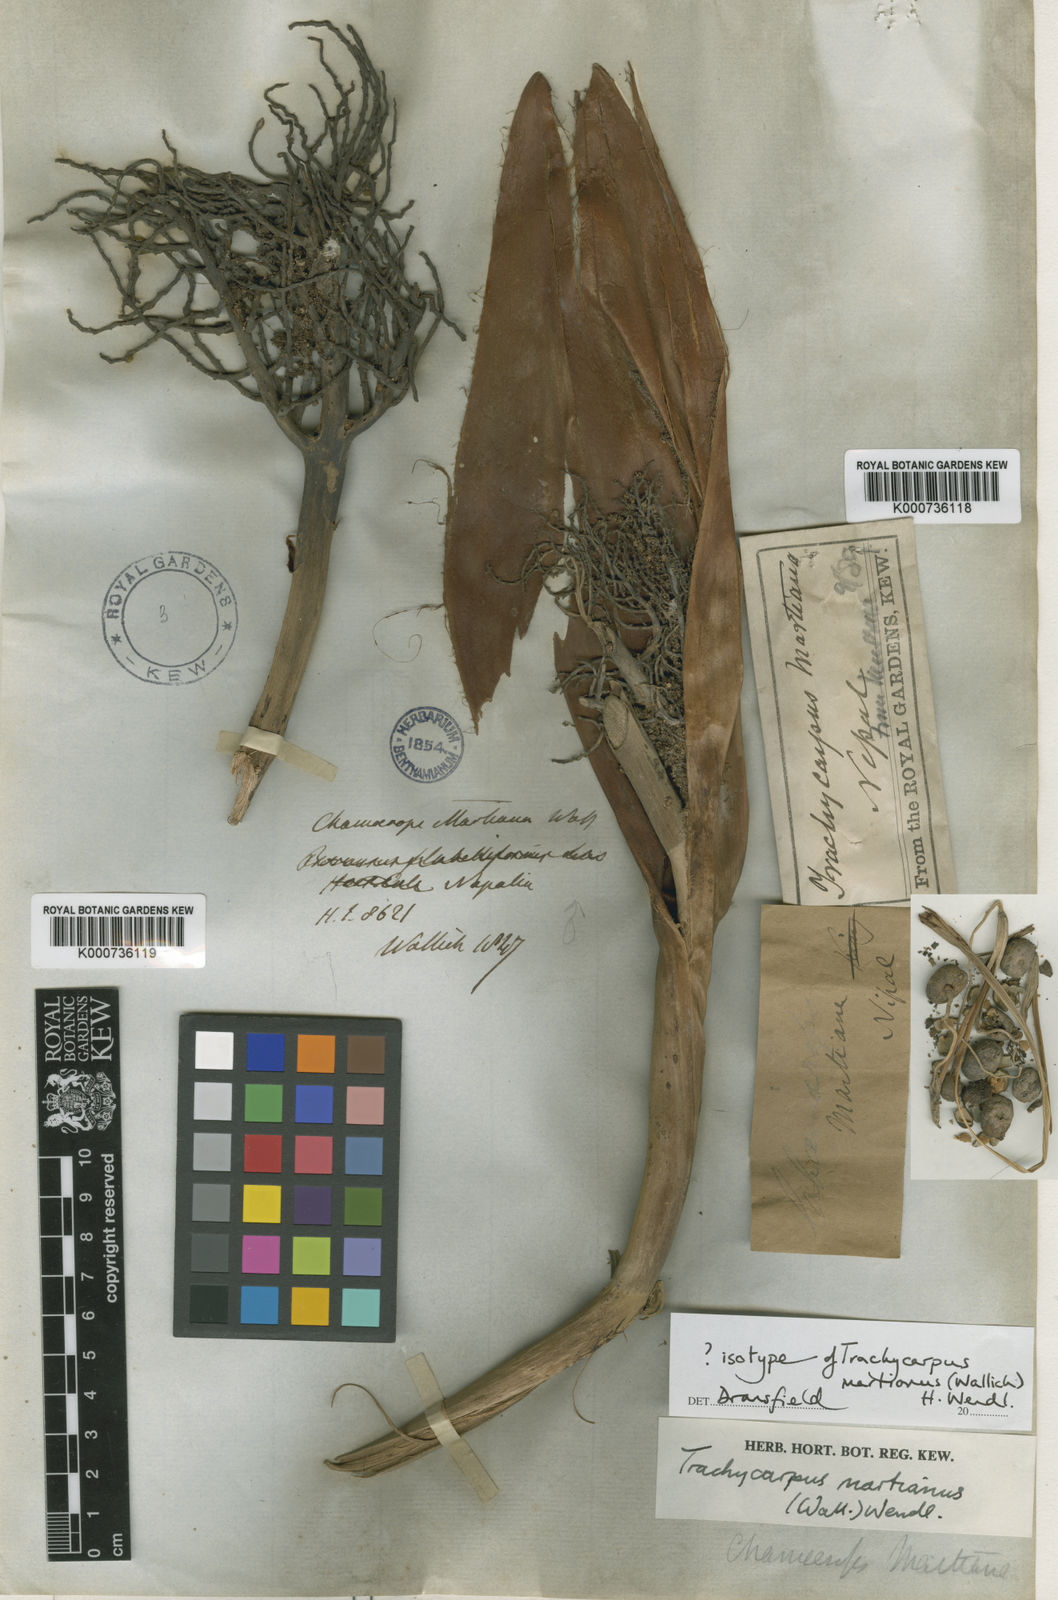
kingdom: Plantae
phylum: Tracheophyta
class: Liliopsida
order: Arecales
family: Arecaceae
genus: Trachycarpus
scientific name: Trachycarpus martianus
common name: Martius's windmill palm
